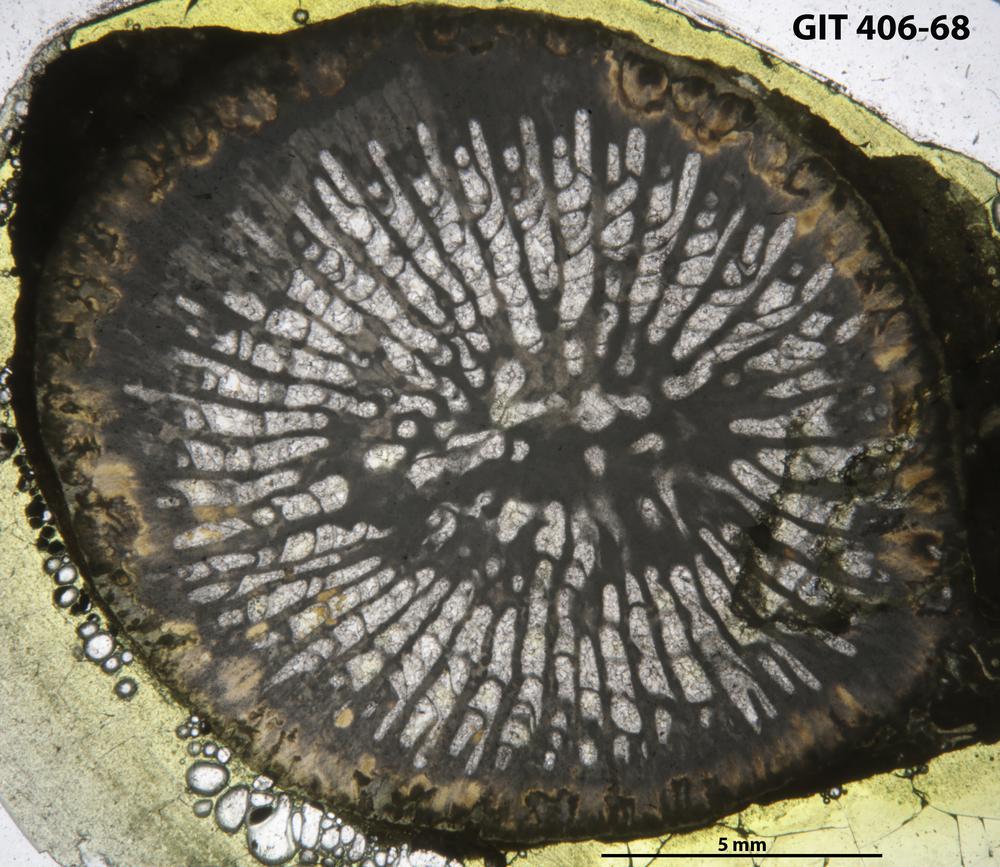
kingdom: Animalia
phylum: Cnidaria
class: Anthozoa
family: Kodonophyllidae
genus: Kodonophyllum
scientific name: Kodonophyllum
